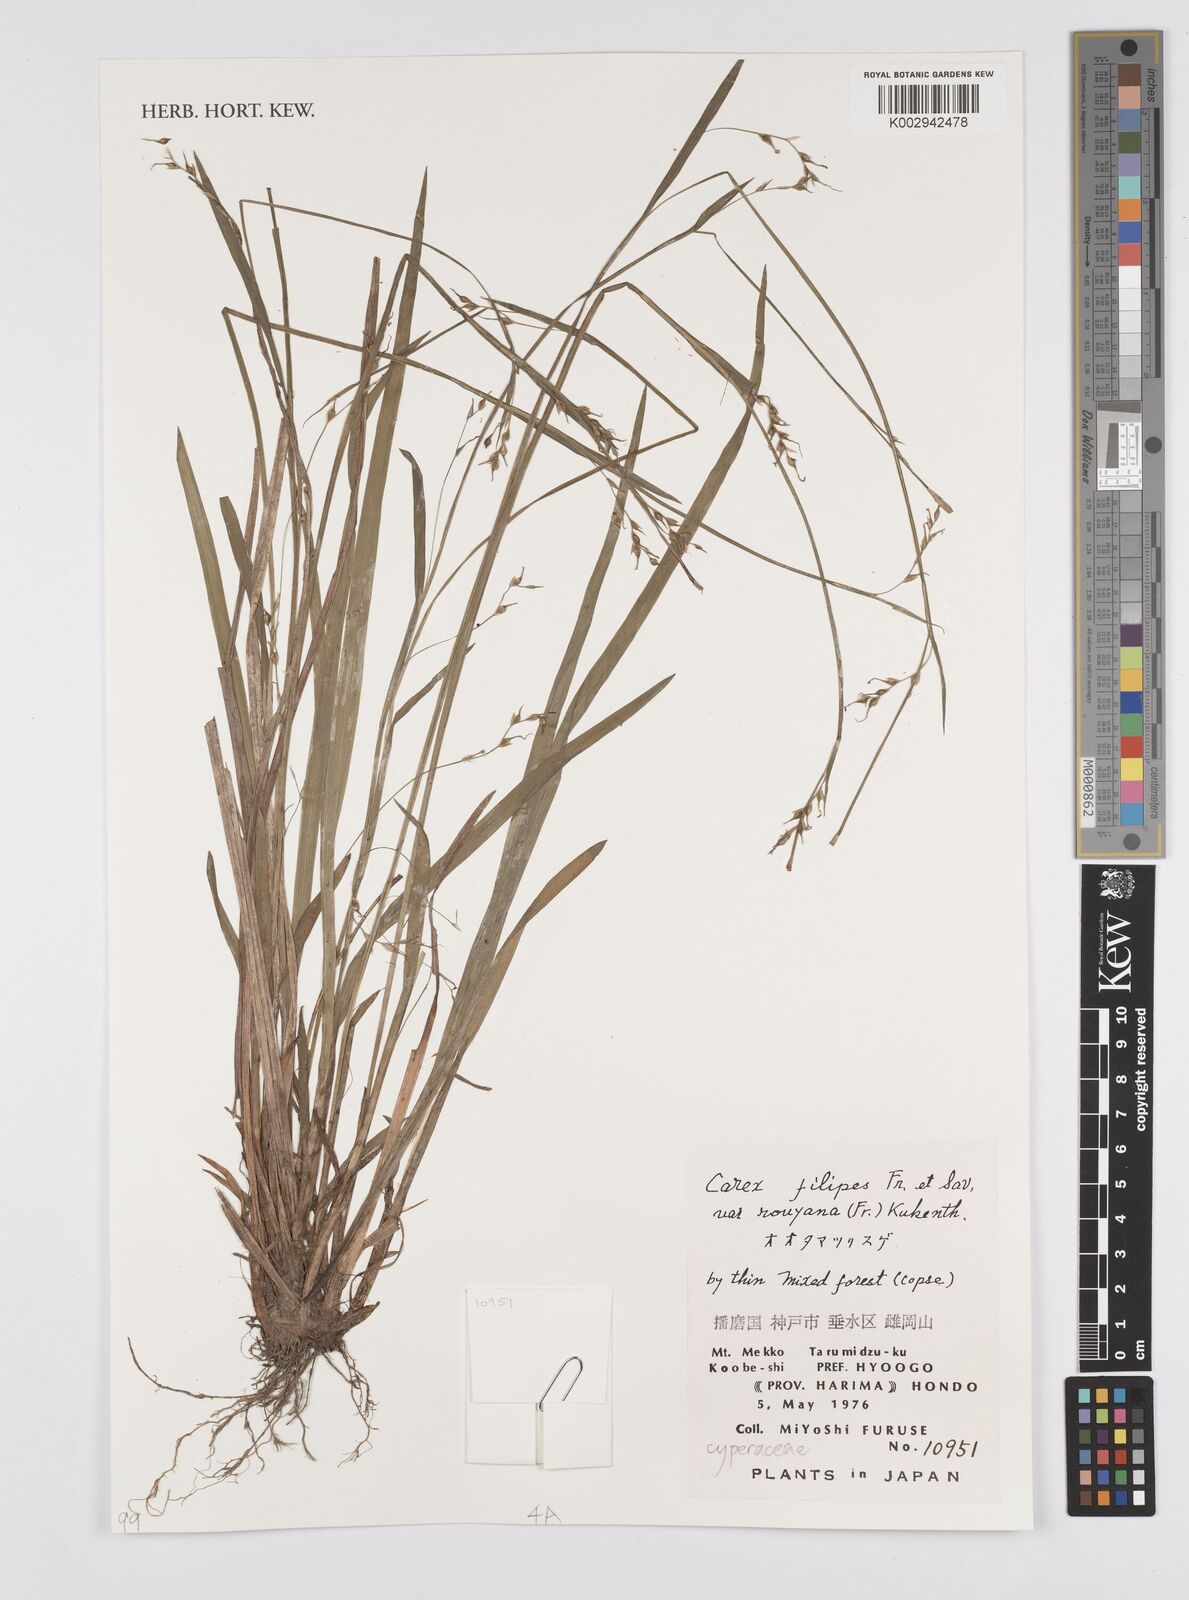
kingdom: Plantae
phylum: Tracheophyta
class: Liliopsida
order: Poales
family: Cyperaceae
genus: Carex
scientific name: Carex filipes
